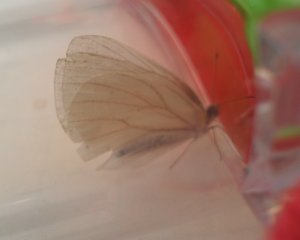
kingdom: Animalia
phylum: Arthropoda
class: Insecta
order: Lepidoptera
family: Pieridae
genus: Pieris
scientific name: Pieris oleracea
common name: Mustard White
